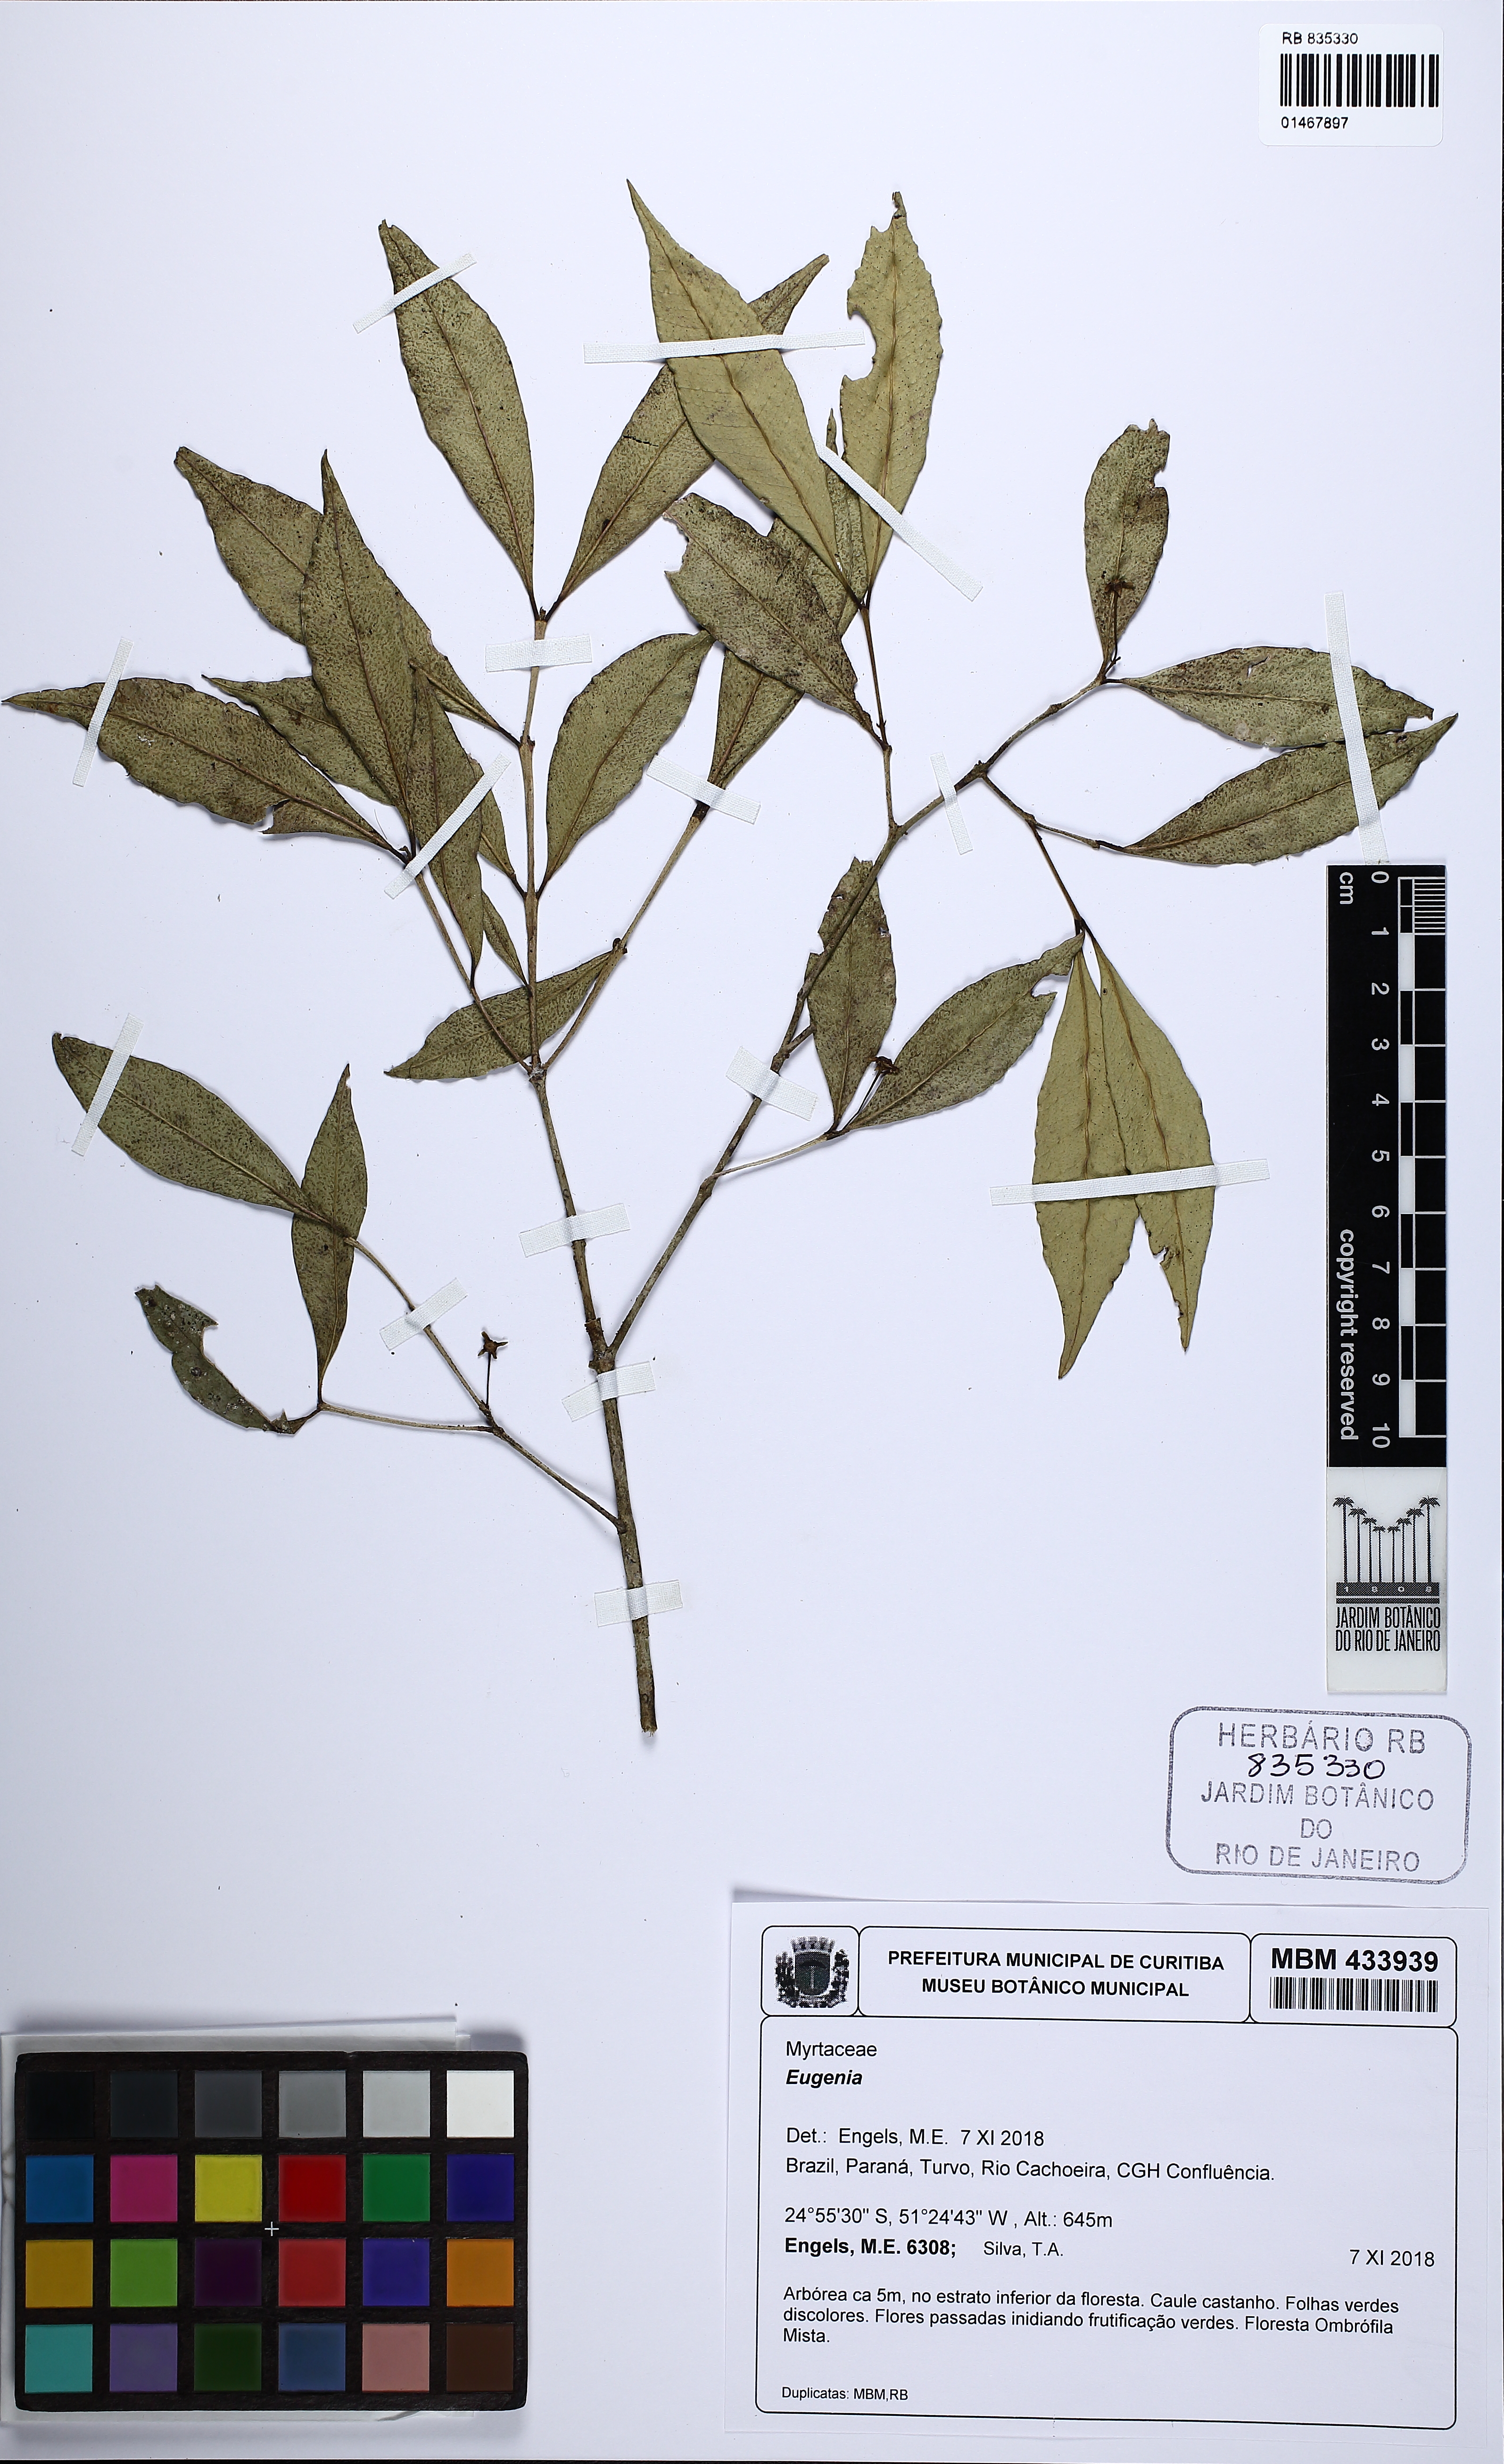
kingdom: Plantae
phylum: Tracheophyta
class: Magnoliopsida
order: Myrtales
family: Myrtaceae
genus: Eugenia
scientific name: Eugenia
